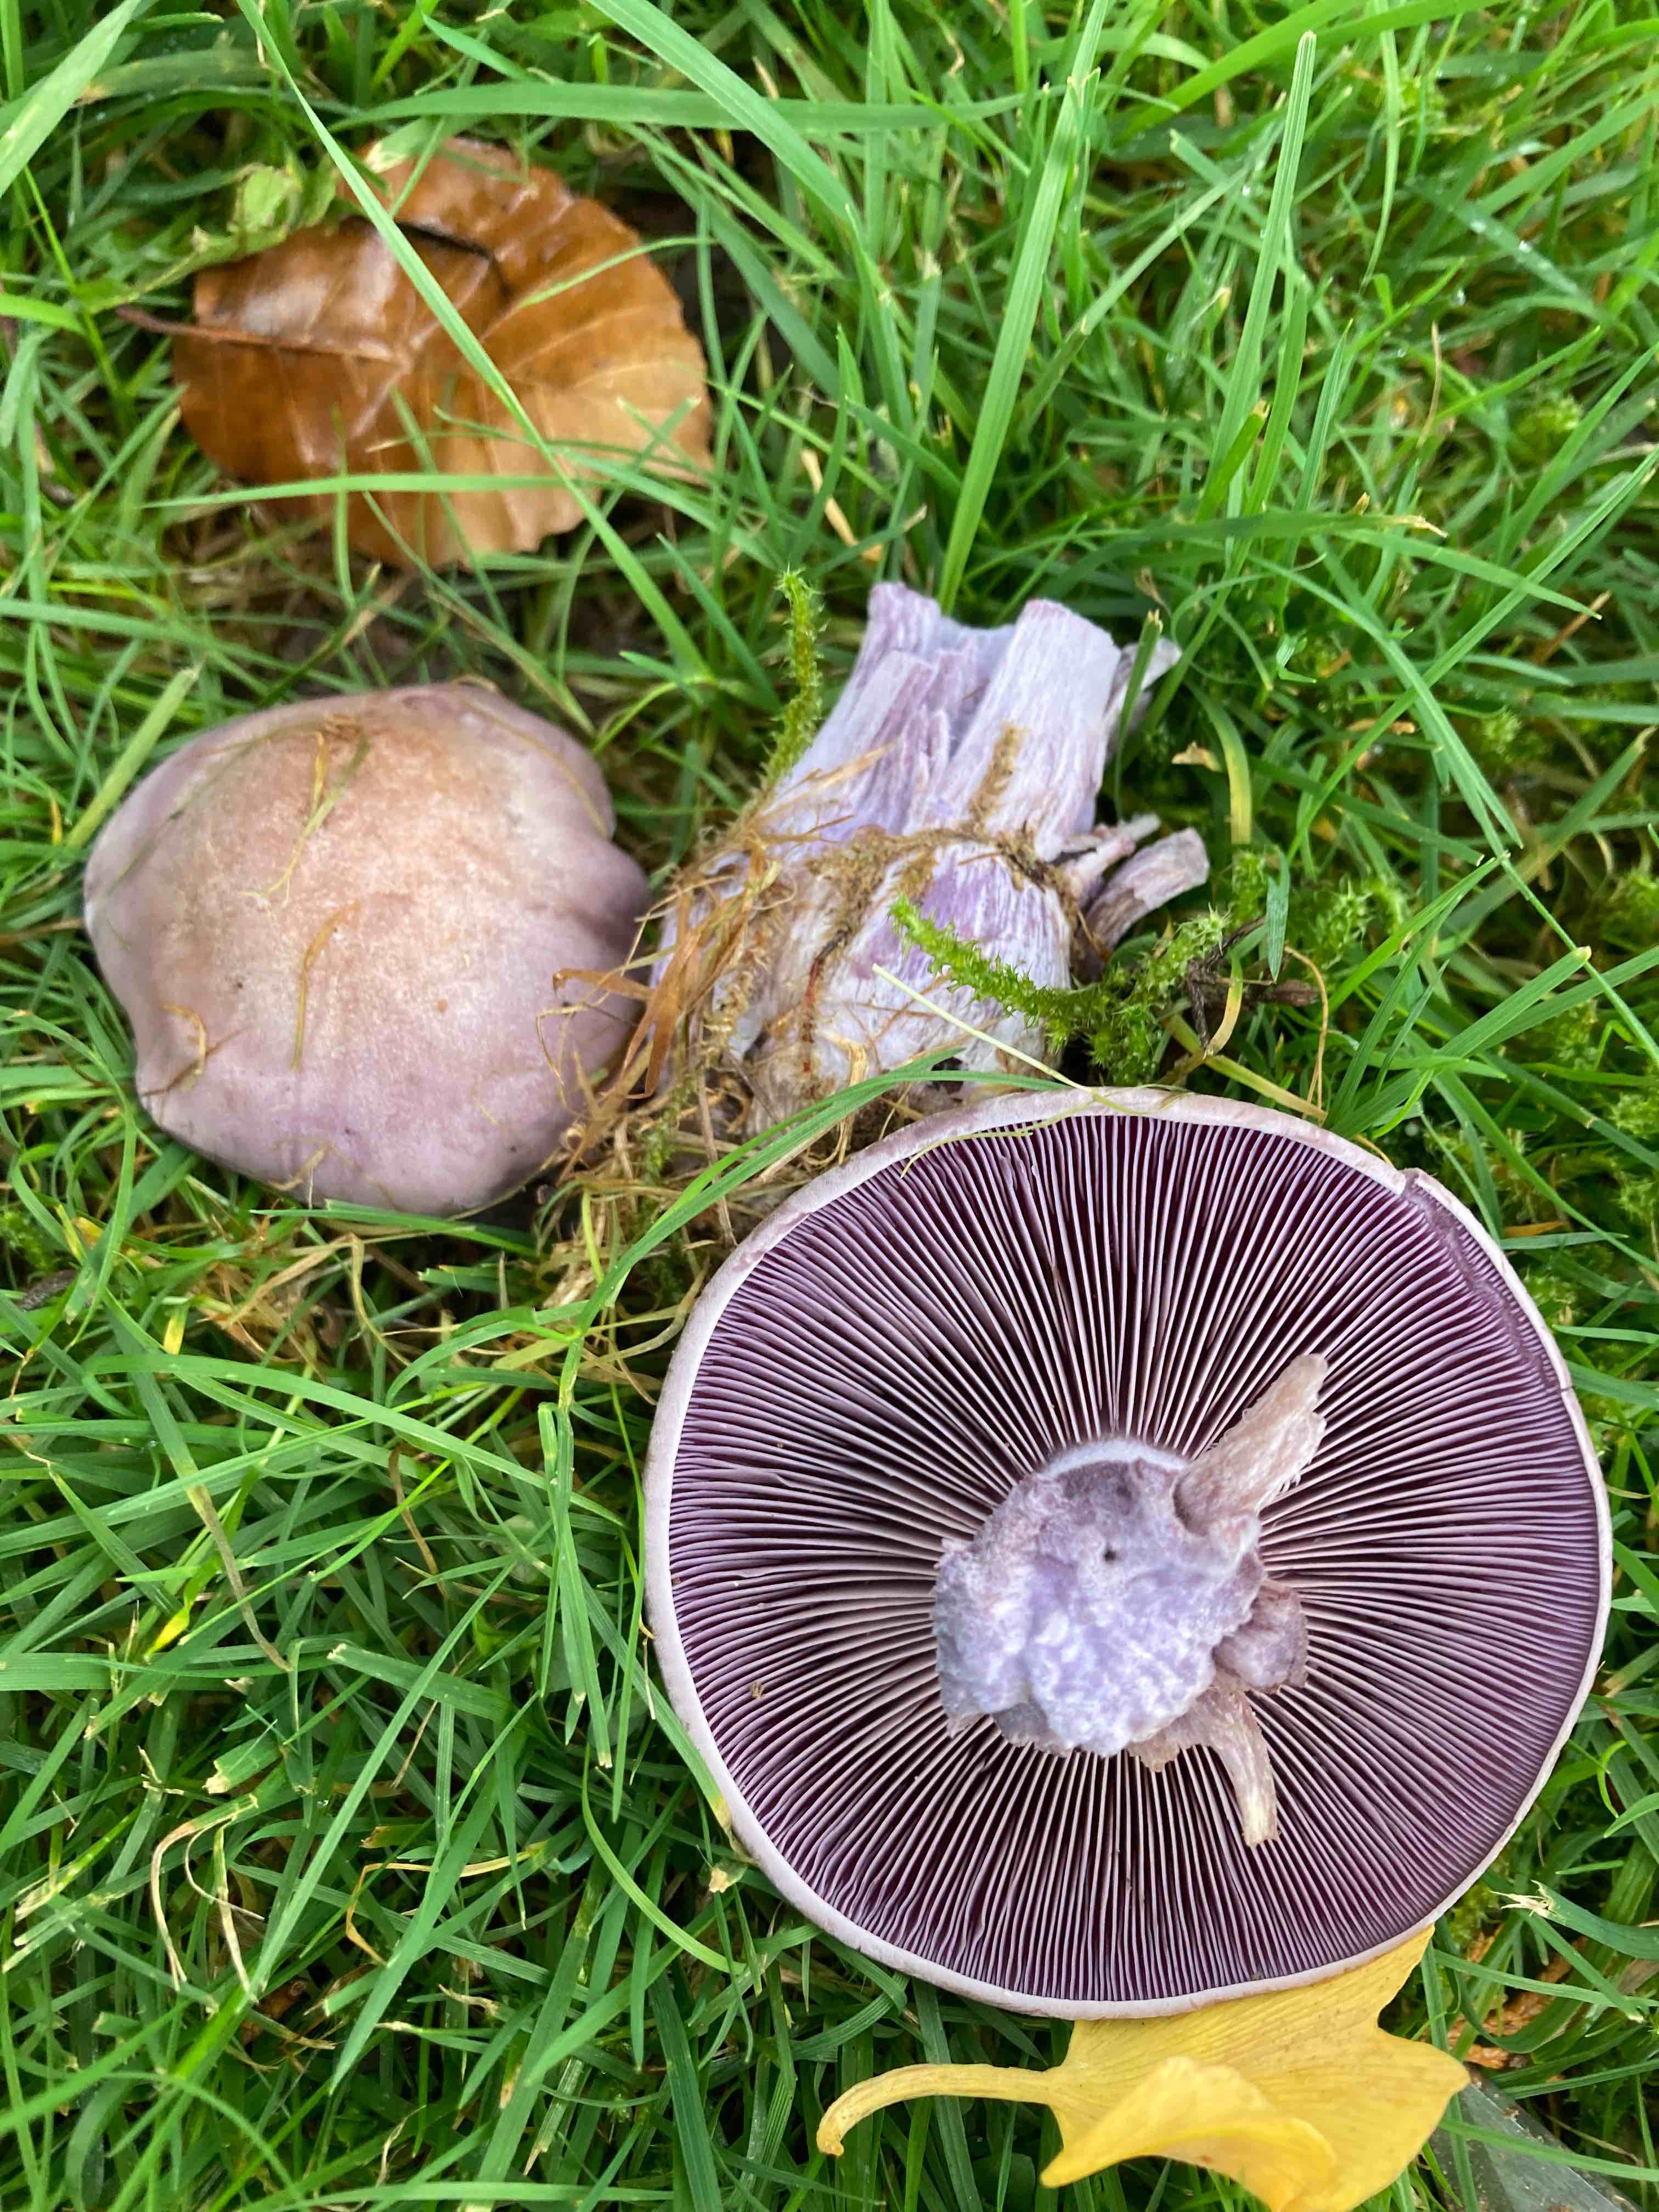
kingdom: Fungi
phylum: Basidiomycota
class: Agaricomycetes
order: Agaricales
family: Tricholomataceae
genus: Lepista
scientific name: Lepista nuda
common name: violet hekseringshat
